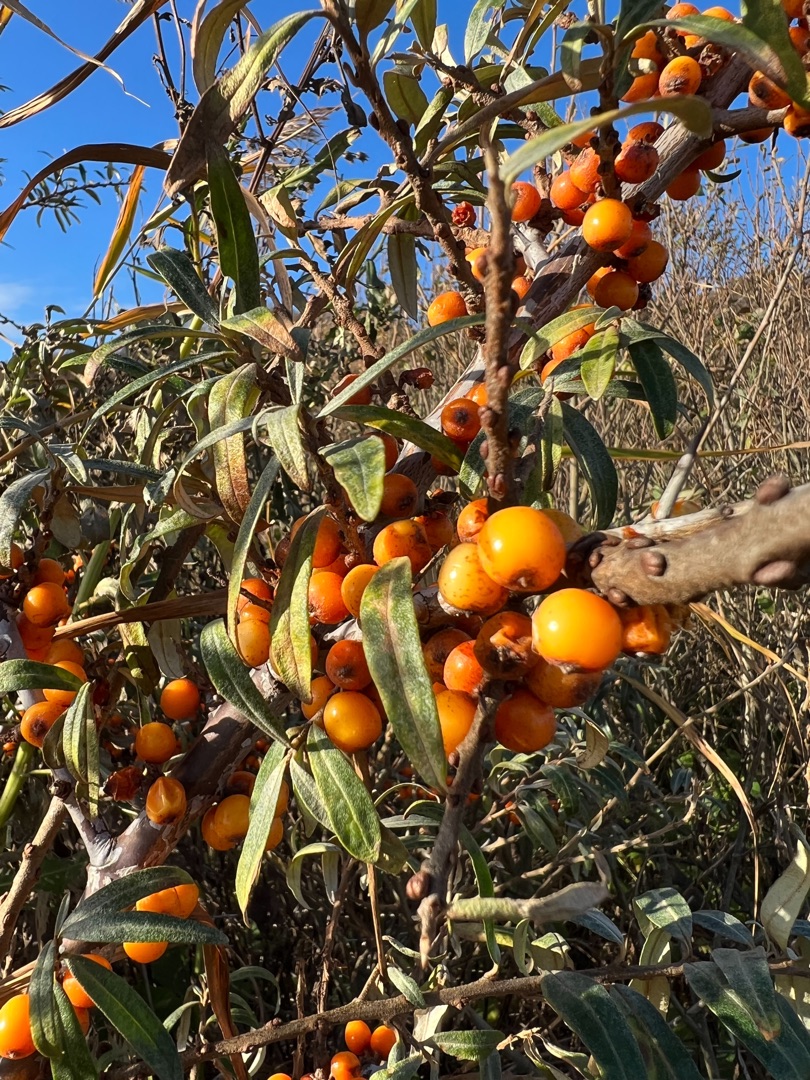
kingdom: Plantae
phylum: Tracheophyta
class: Magnoliopsida
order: Rosales
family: Elaeagnaceae
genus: Hippophae
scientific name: Hippophae rhamnoides
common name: Havtorn
